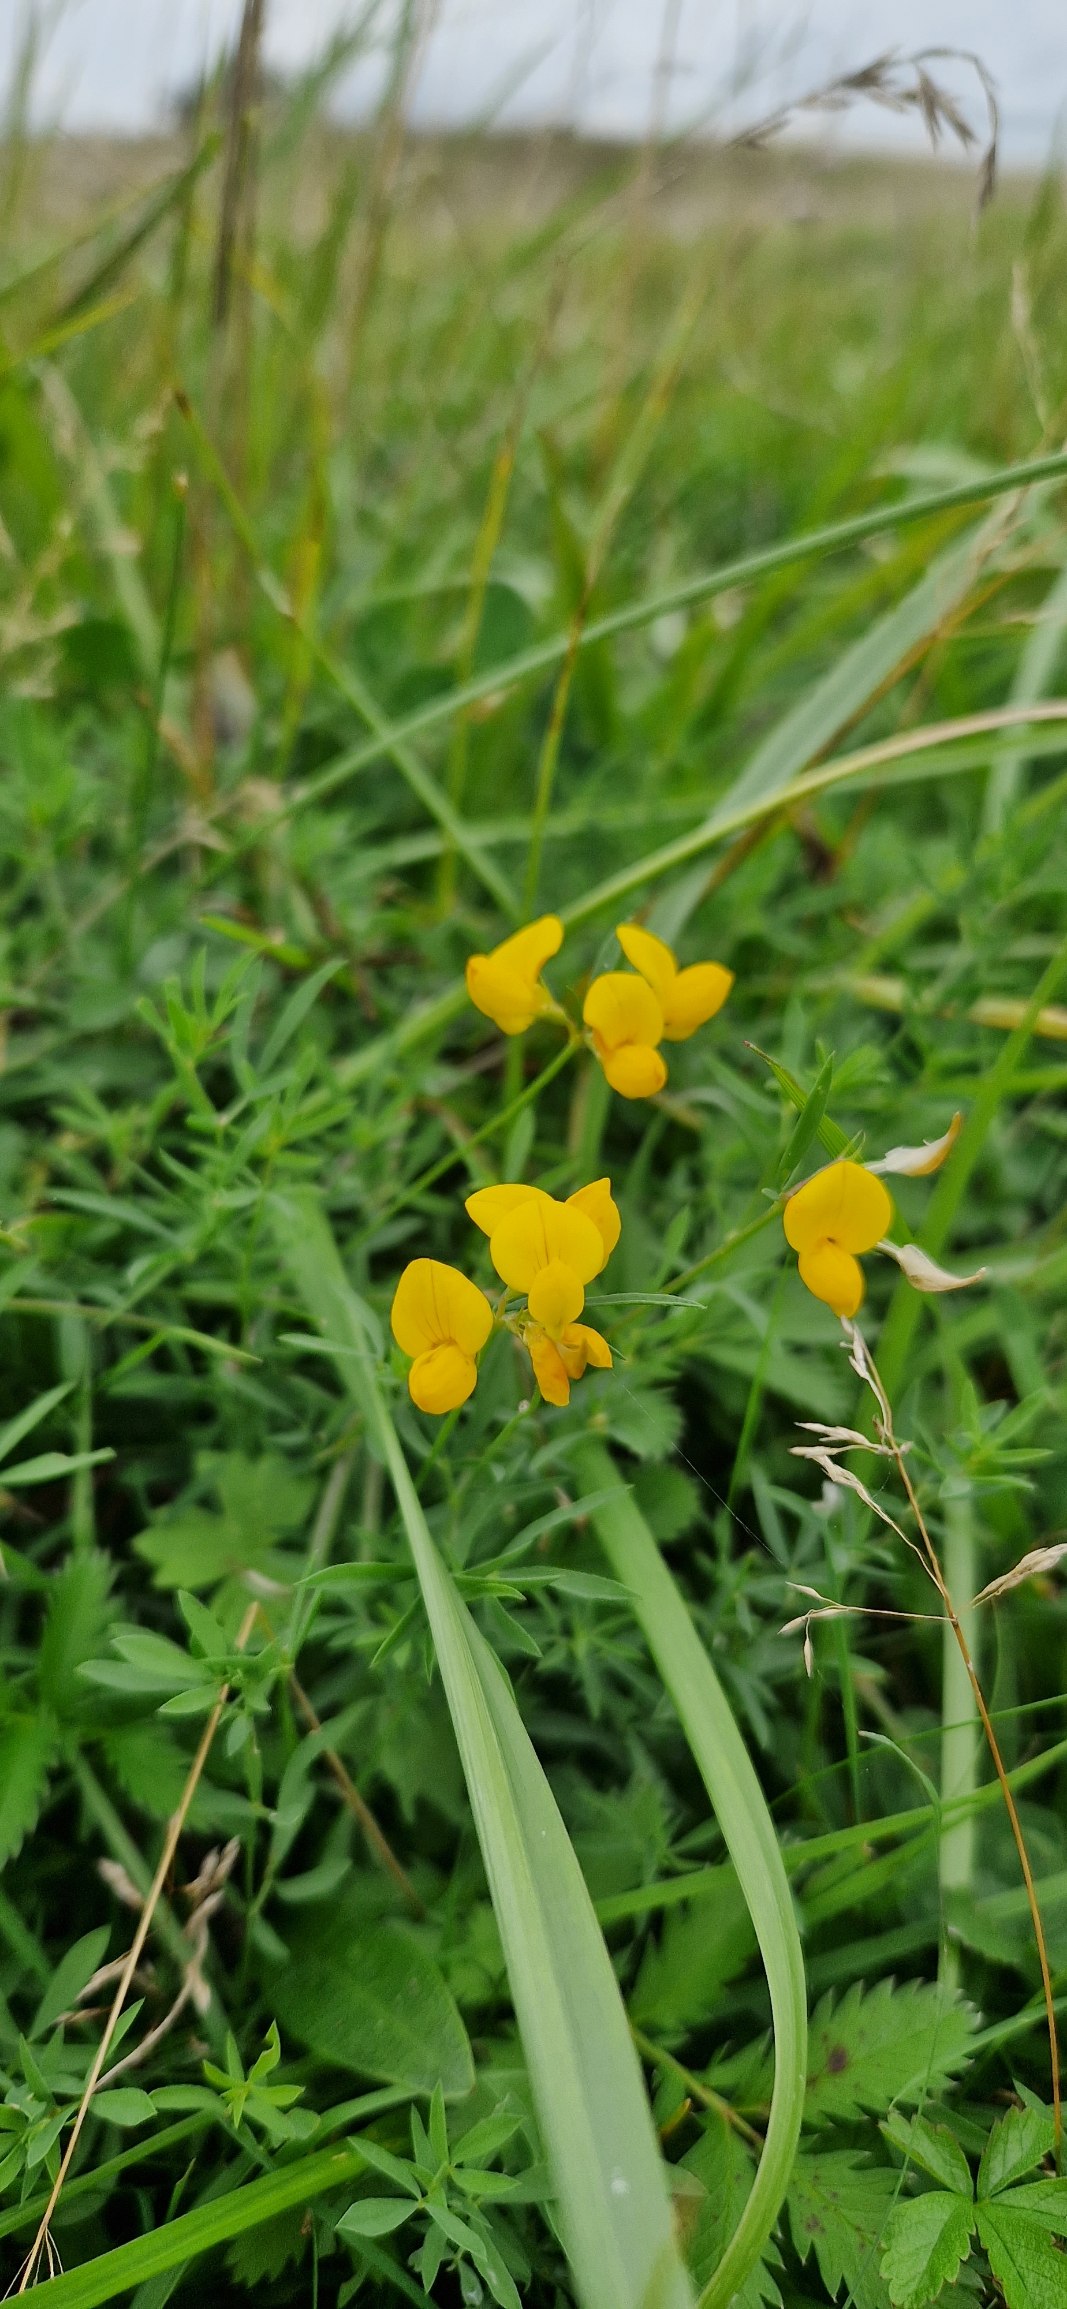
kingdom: Plantae
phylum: Tracheophyta
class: Magnoliopsida
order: Fabales
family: Fabaceae
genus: Lotus
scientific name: Lotus tenuis
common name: Smalbladet kællingetand
